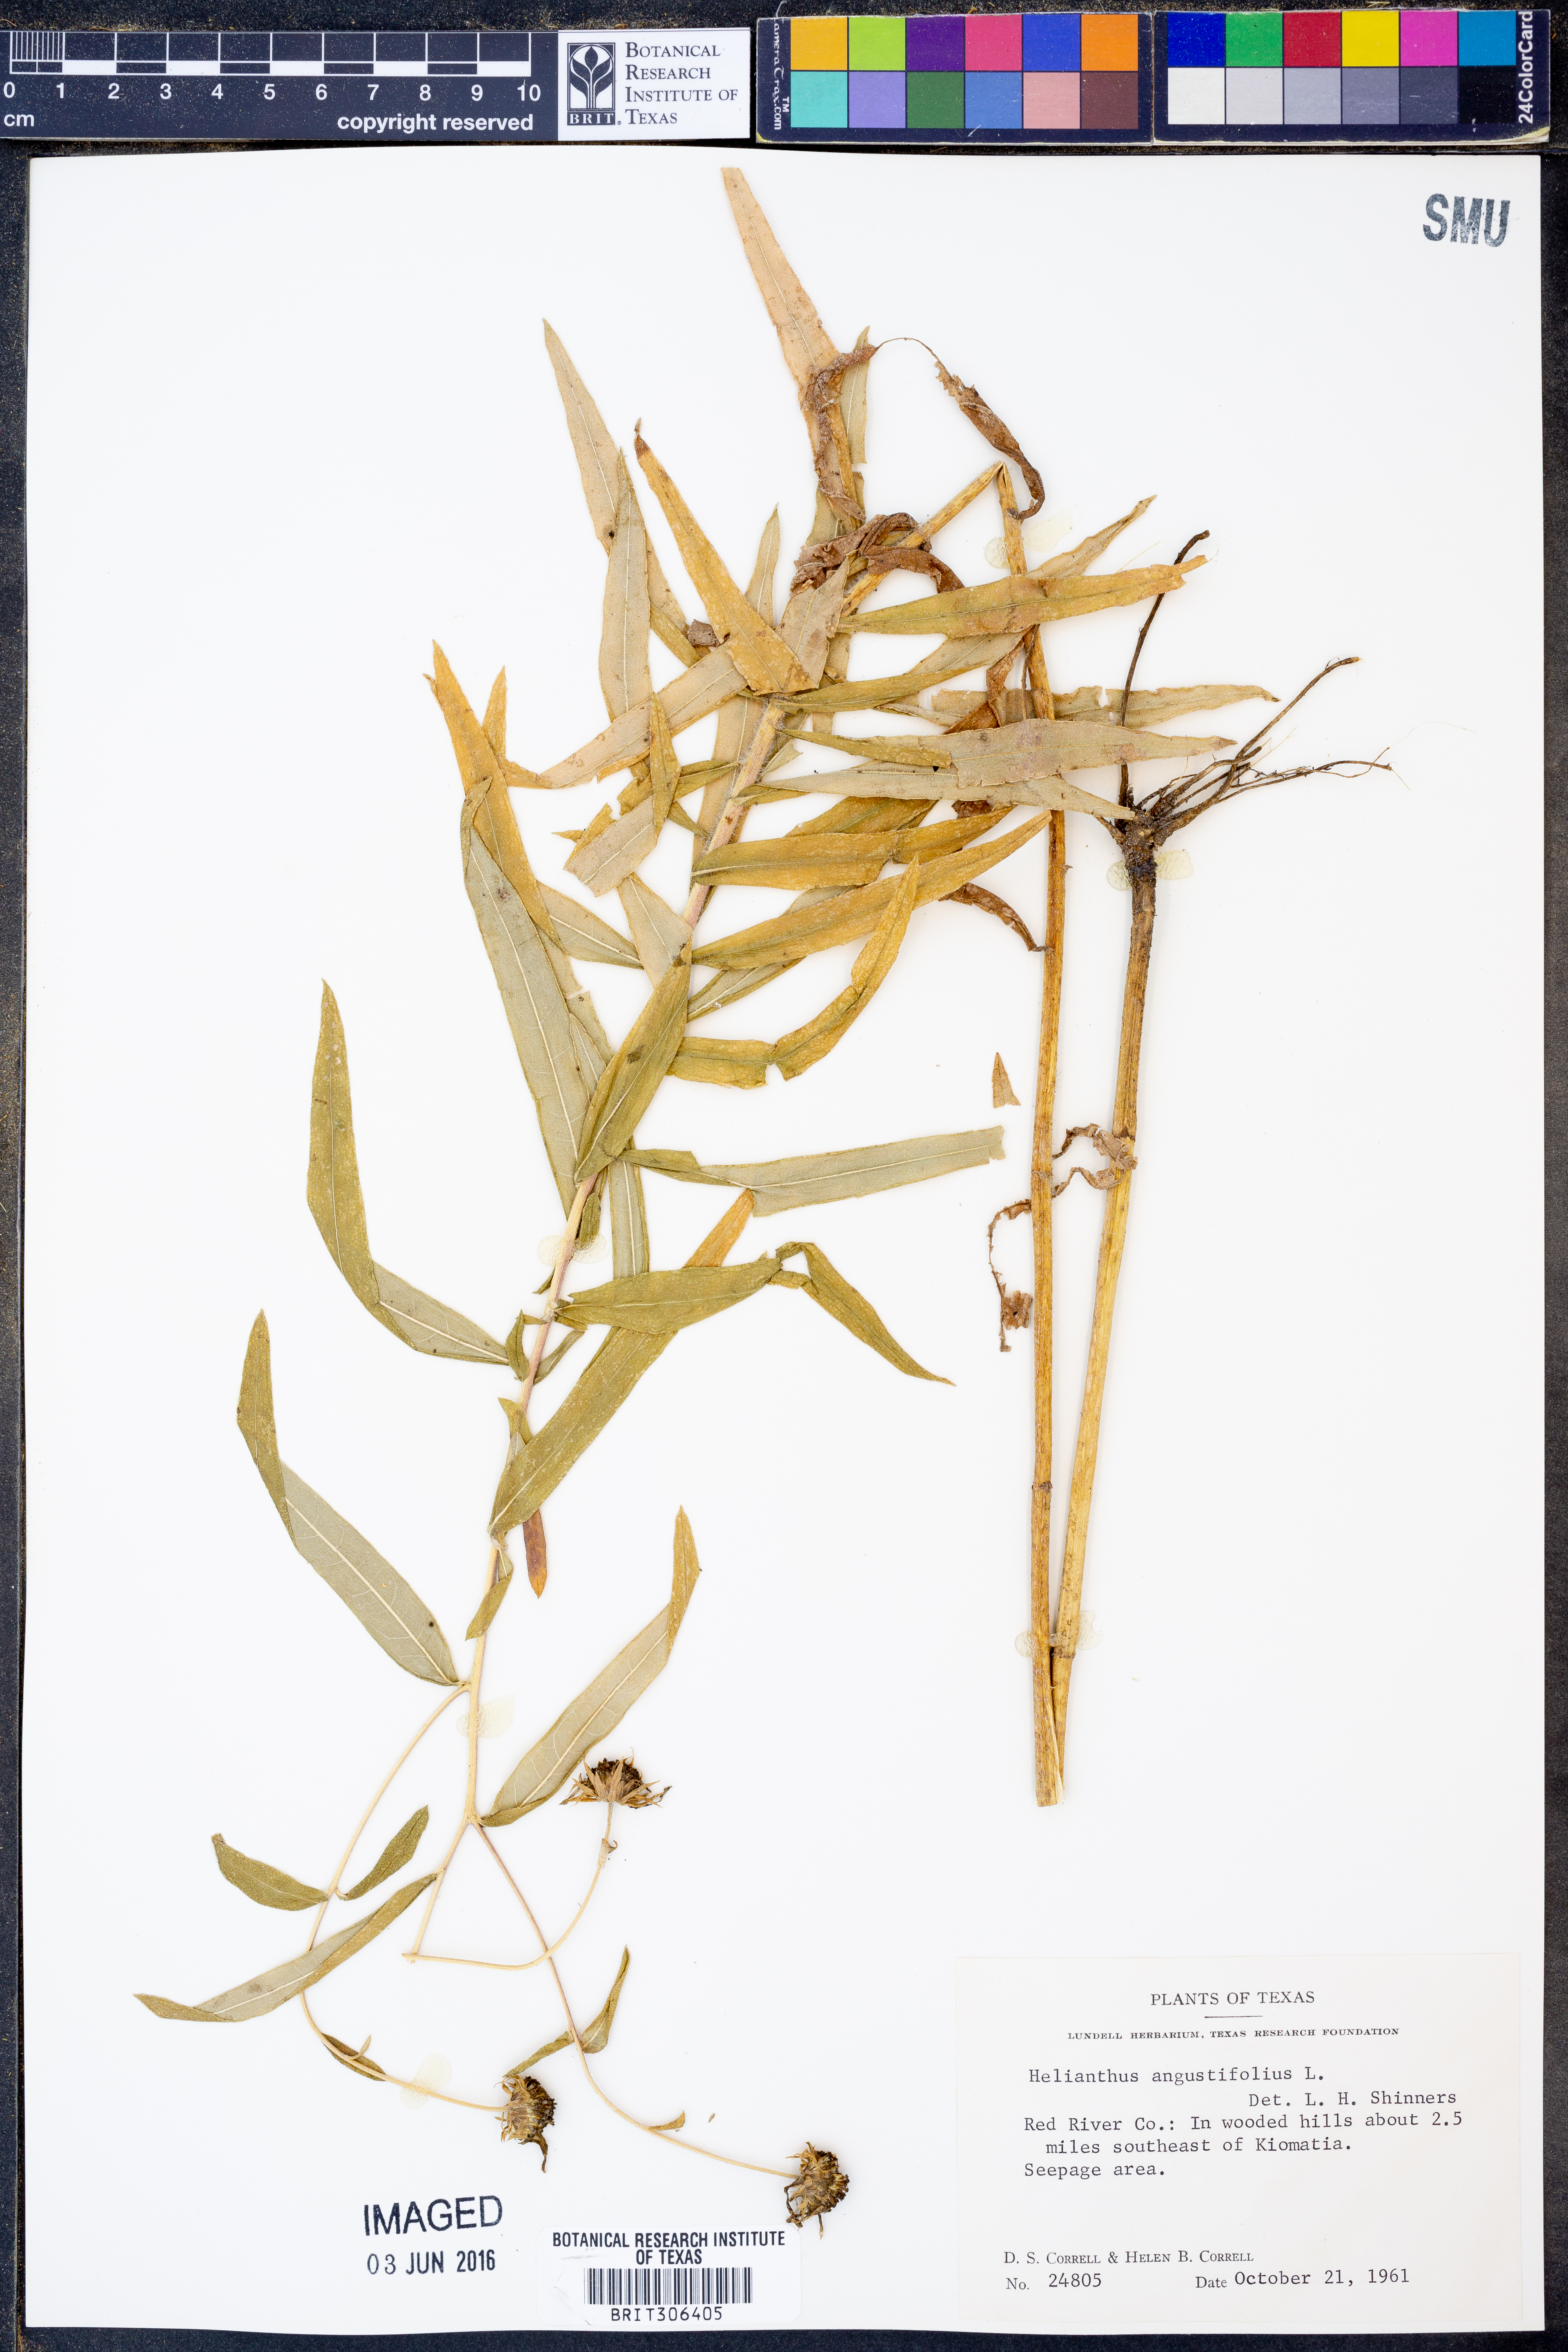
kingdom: Plantae
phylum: Tracheophyta
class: Magnoliopsida
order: Asterales
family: Asteraceae
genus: Helianthus
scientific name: Helianthus angustifolius
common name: Swamp sunflower
